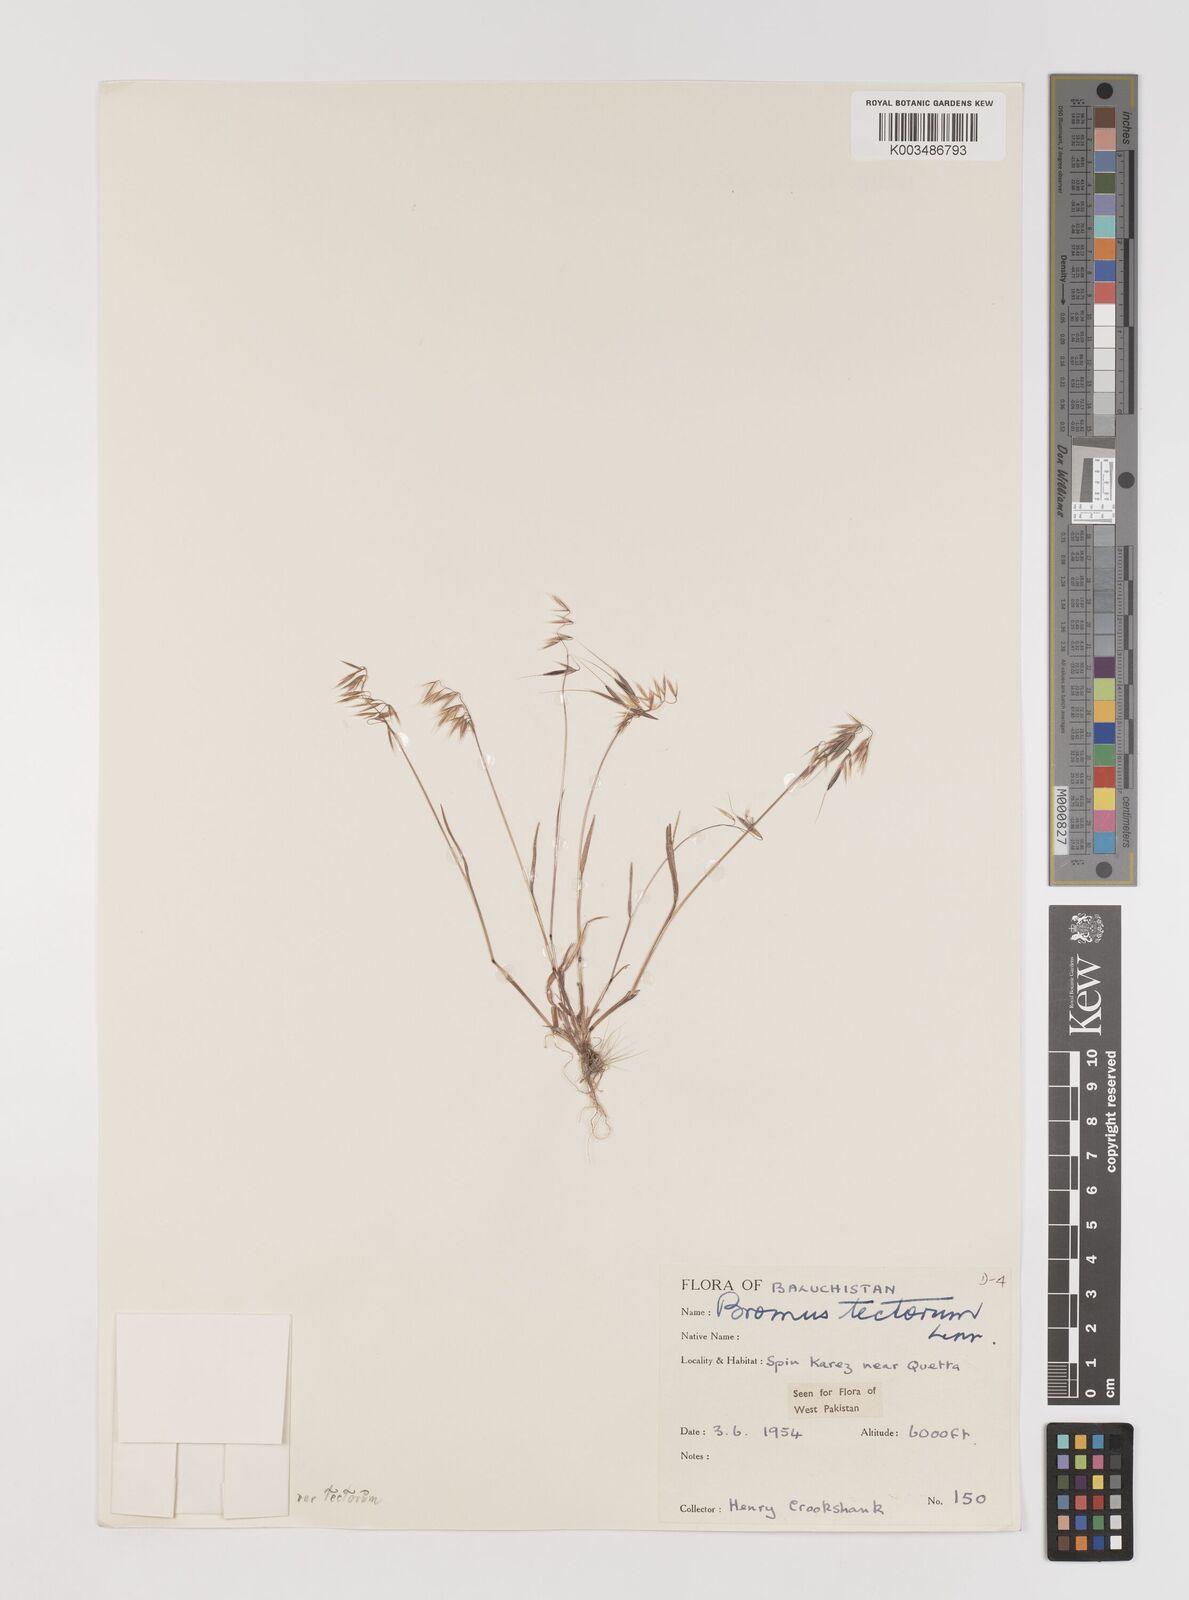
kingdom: Plantae
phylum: Tracheophyta
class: Liliopsida
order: Poales
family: Poaceae
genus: Bromus
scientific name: Bromus tectorum
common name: Cheatgrass
